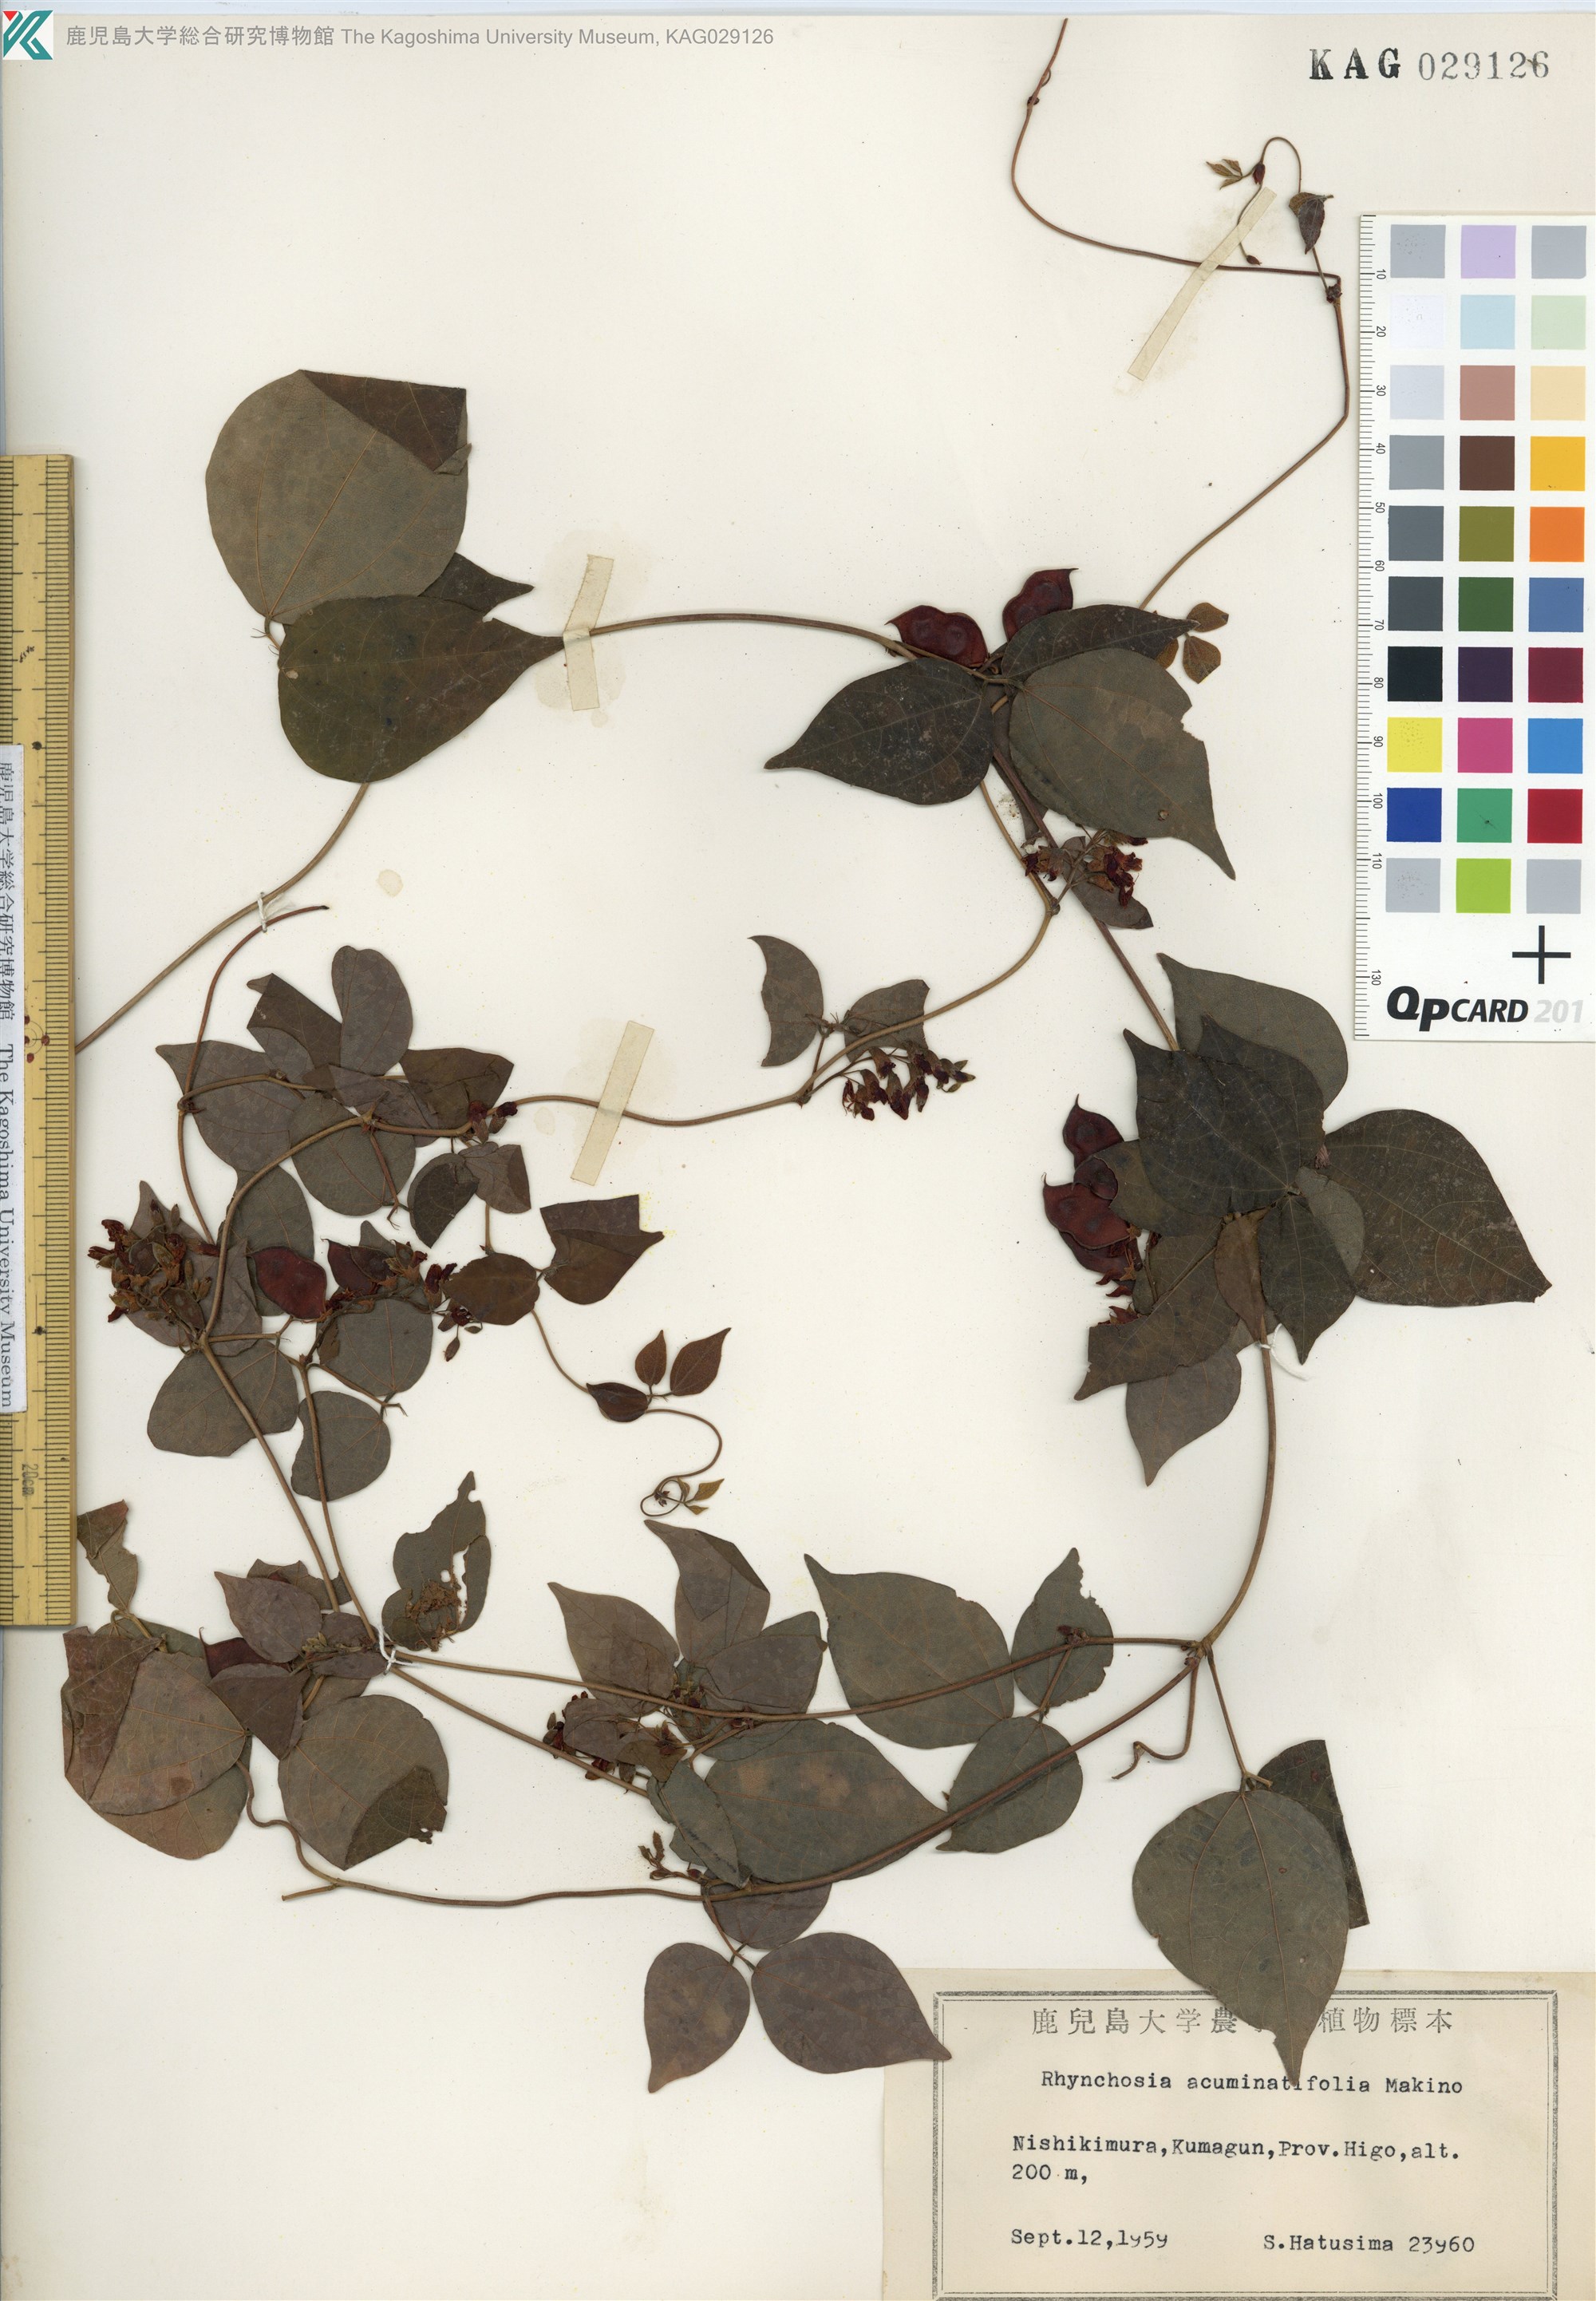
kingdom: Plantae
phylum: Tracheophyta
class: Magnoliopsida
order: Fabales
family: Fabaceae
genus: Rhynchosia
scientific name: Rhynchosia acuminatifolia
